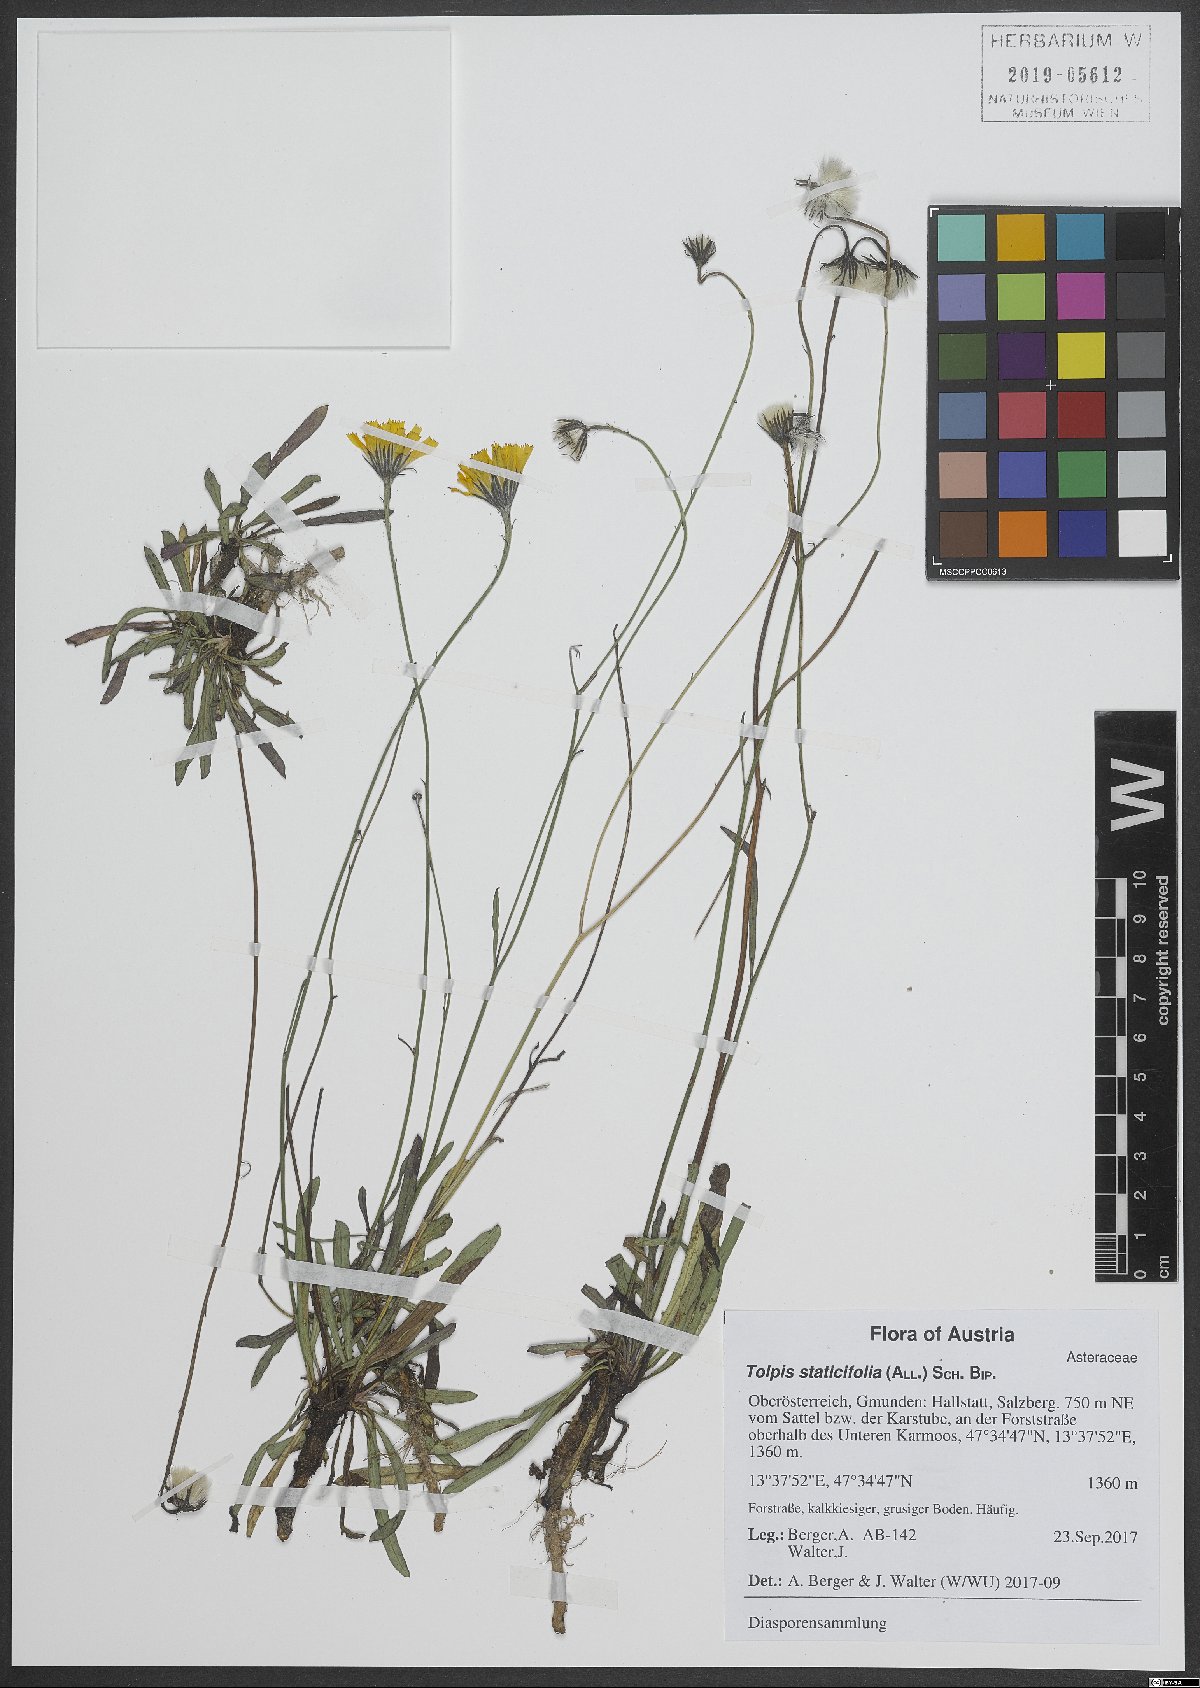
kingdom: Plantae
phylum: Tracheophyta
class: Magnoliopsida
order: Asterales
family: Asteraceae
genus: Tolpis
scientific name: Tolpis staticifolia
